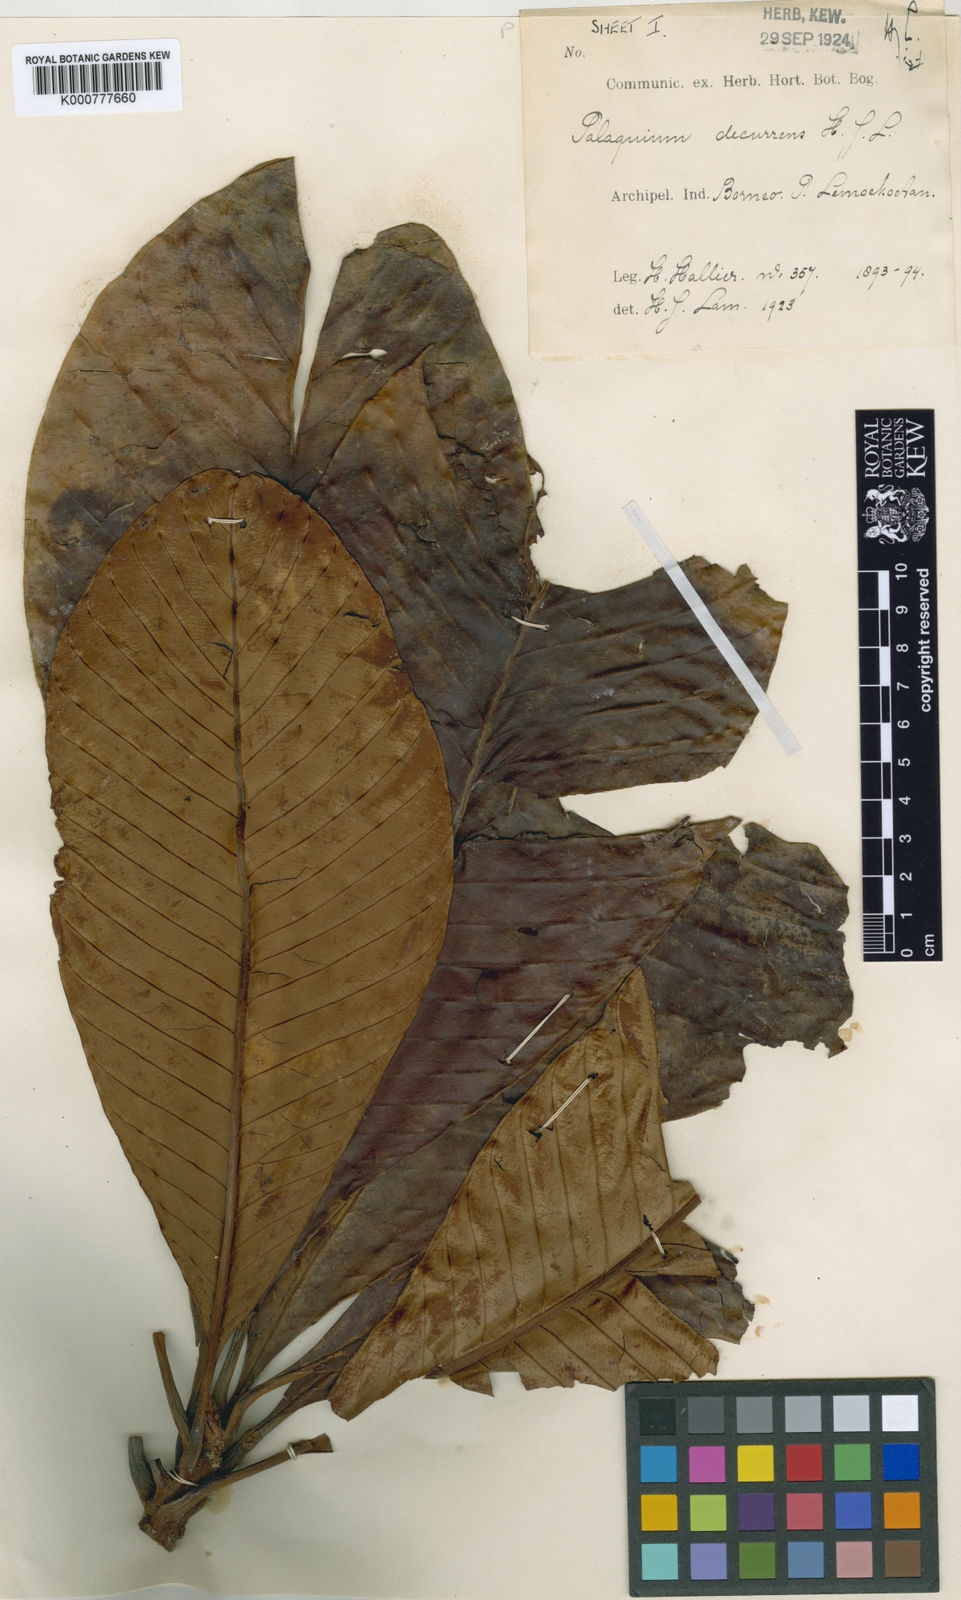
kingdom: Plantae
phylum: Tracheophyta
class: Magnoliopsida
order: Ericales
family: Sapotaceae
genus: Palaquium
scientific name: Palaquium decurrens
